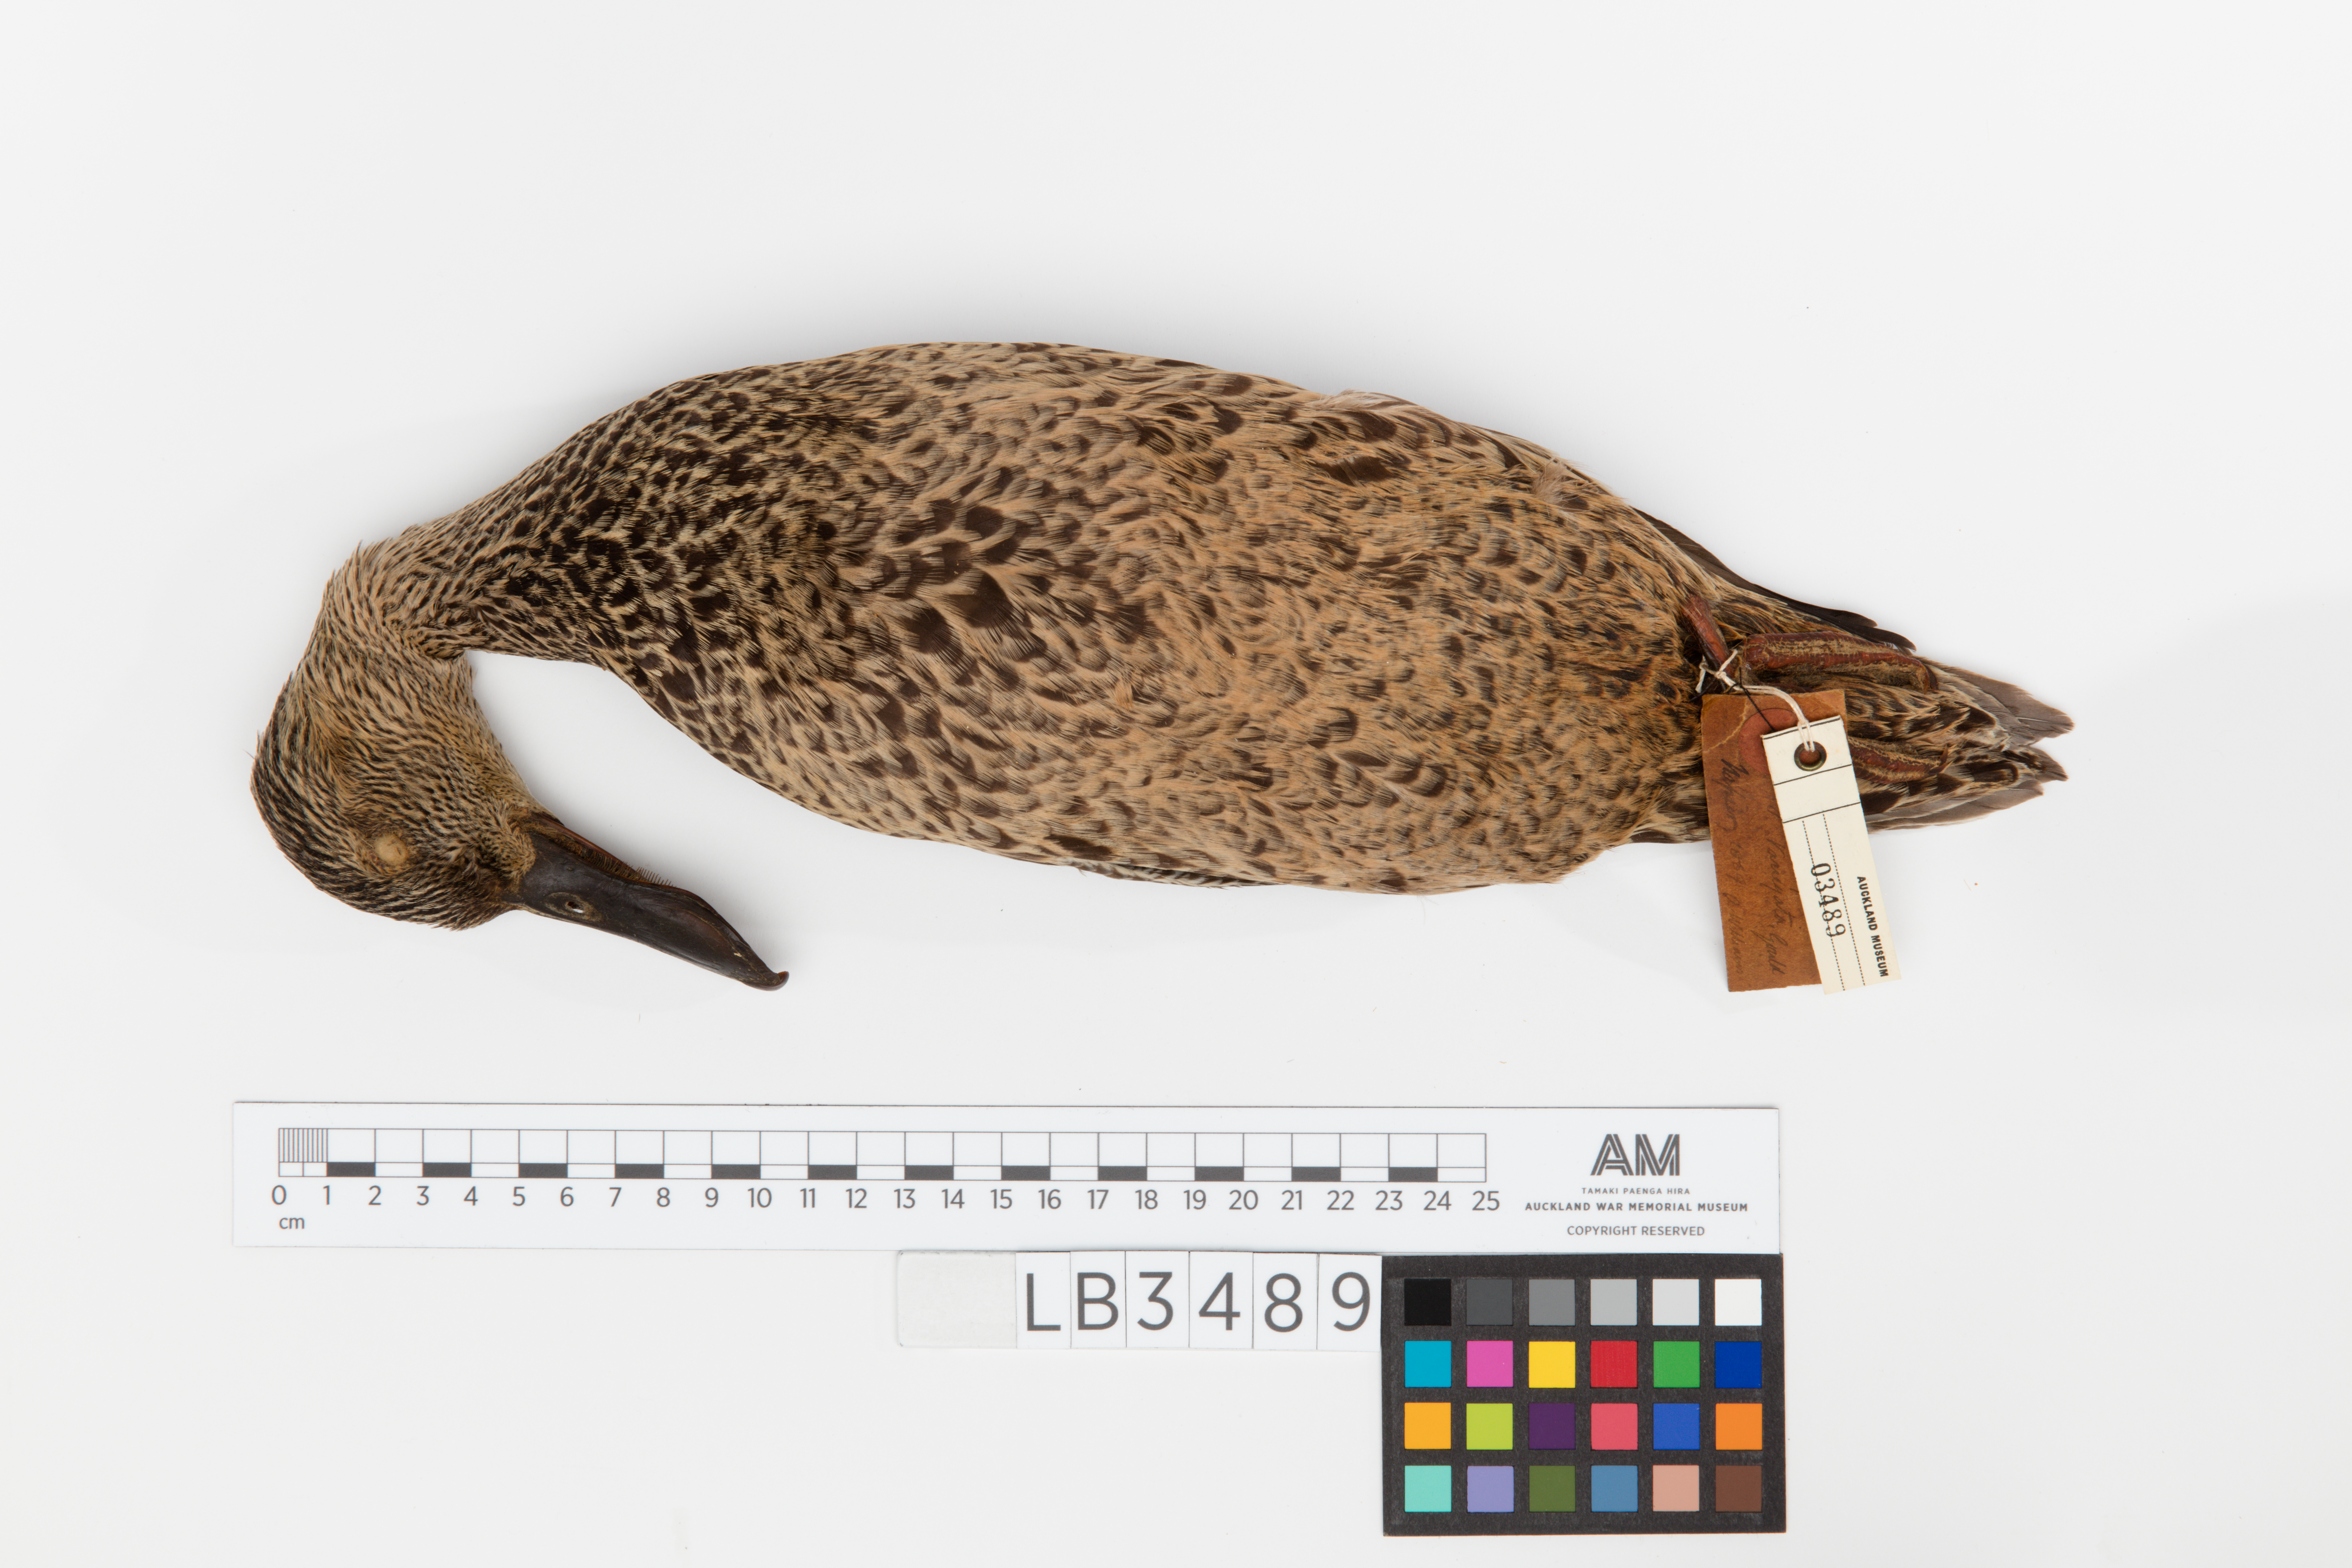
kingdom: Animalia
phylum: Chordata
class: Aves
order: Anseriformes
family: Anatidae
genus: Spatula
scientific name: Spatula rhynchotis
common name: Australian shoveler
